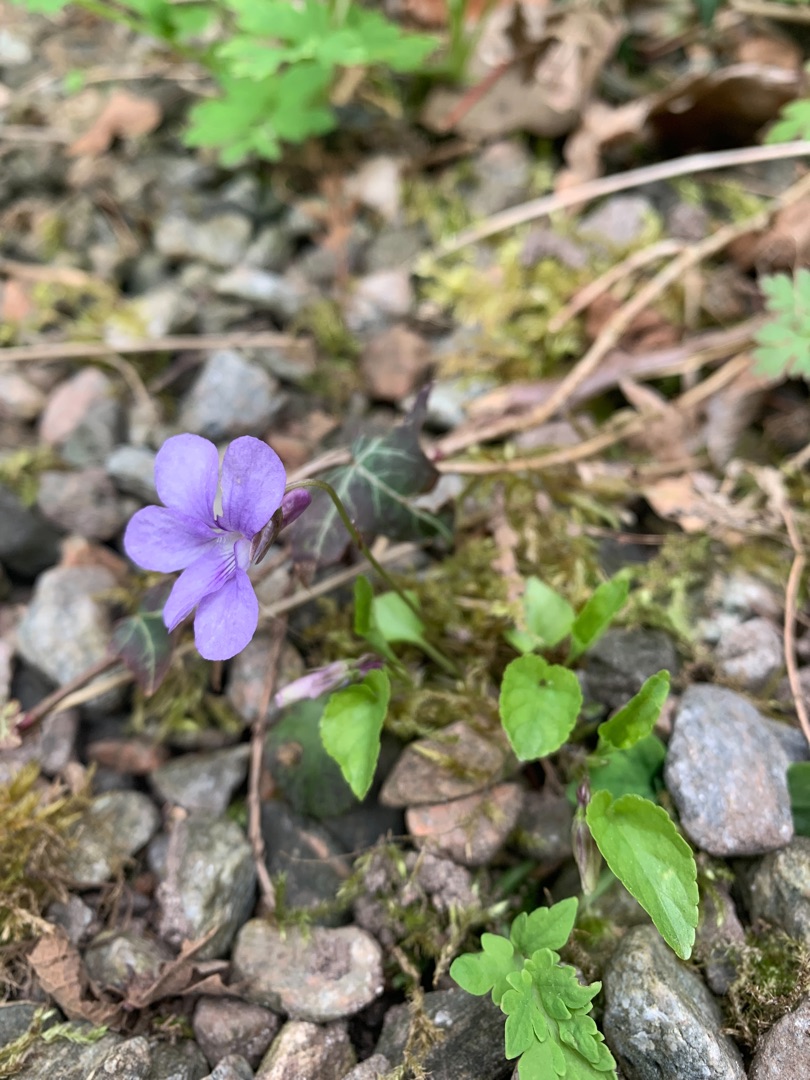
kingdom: Plantae
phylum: Tracheophyta
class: Magnoliopsida
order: Malpighiales
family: Violaceae
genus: Viola
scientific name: Viola reichenbachiana
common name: Skov-viol
